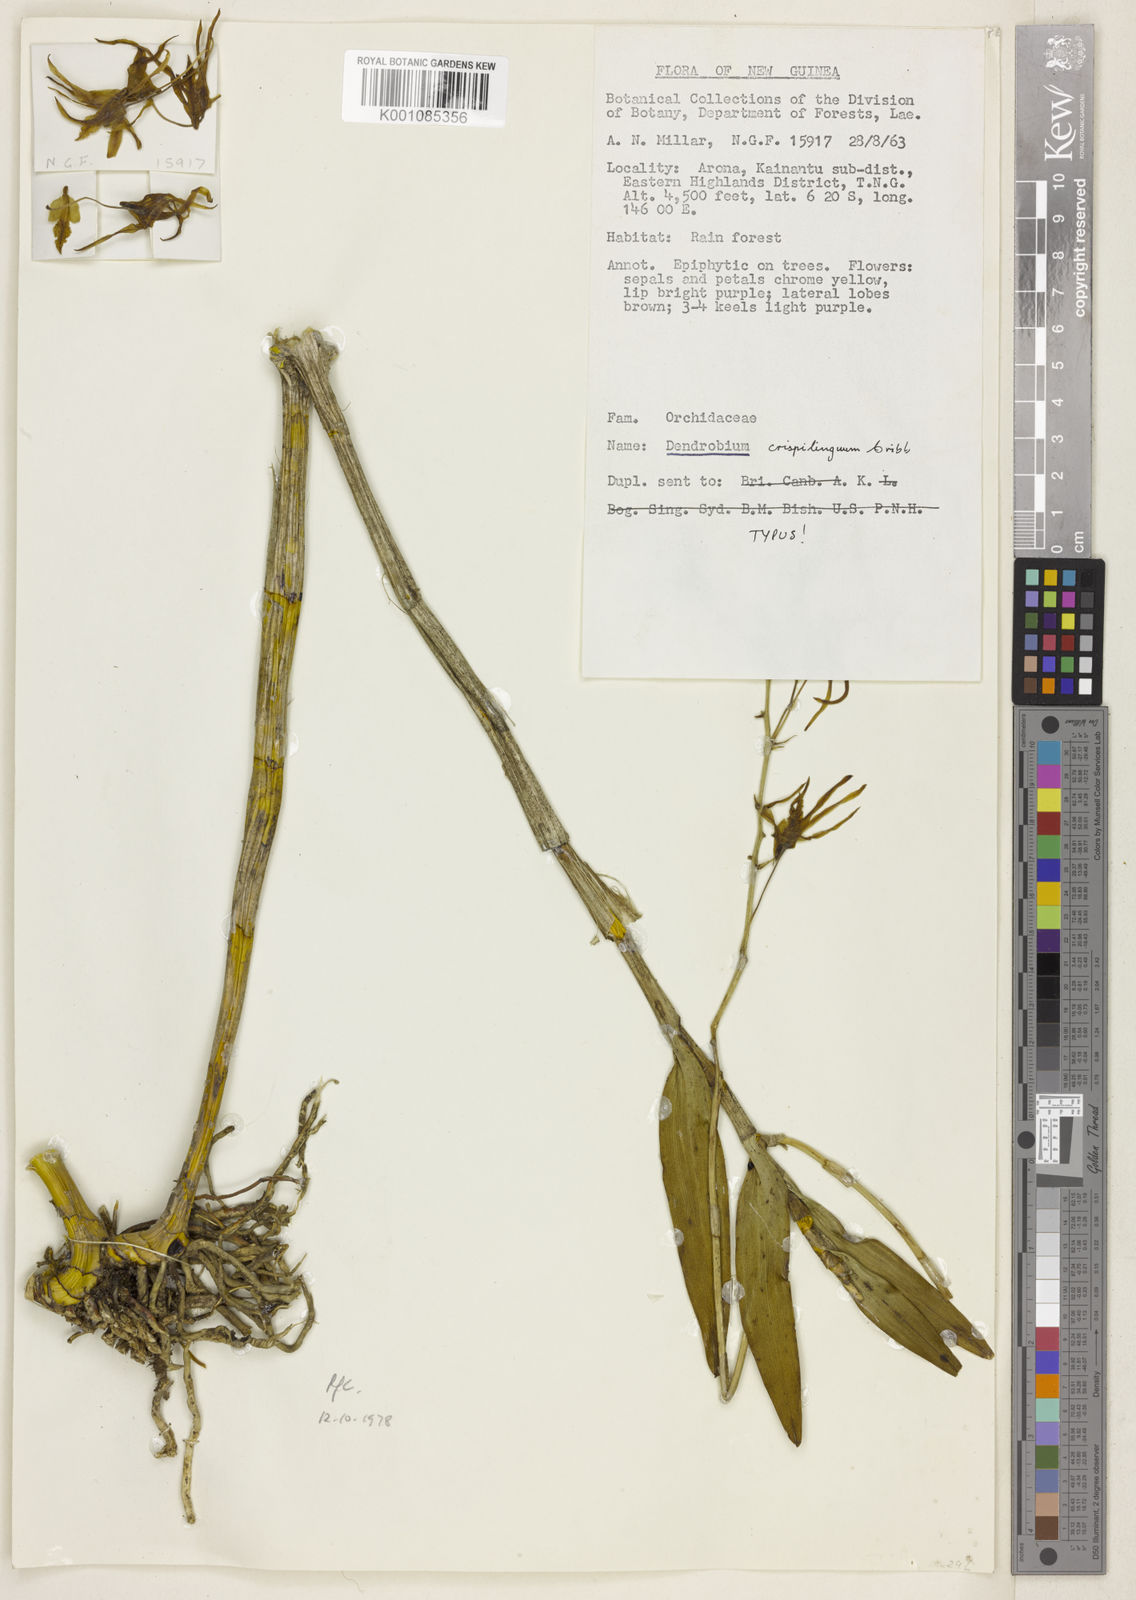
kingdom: Plantae
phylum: Tracheophyta
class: Liliopsida
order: Asparagales
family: Orchidaceae
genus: Dendrobium
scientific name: Dendrobium crispilinguum
